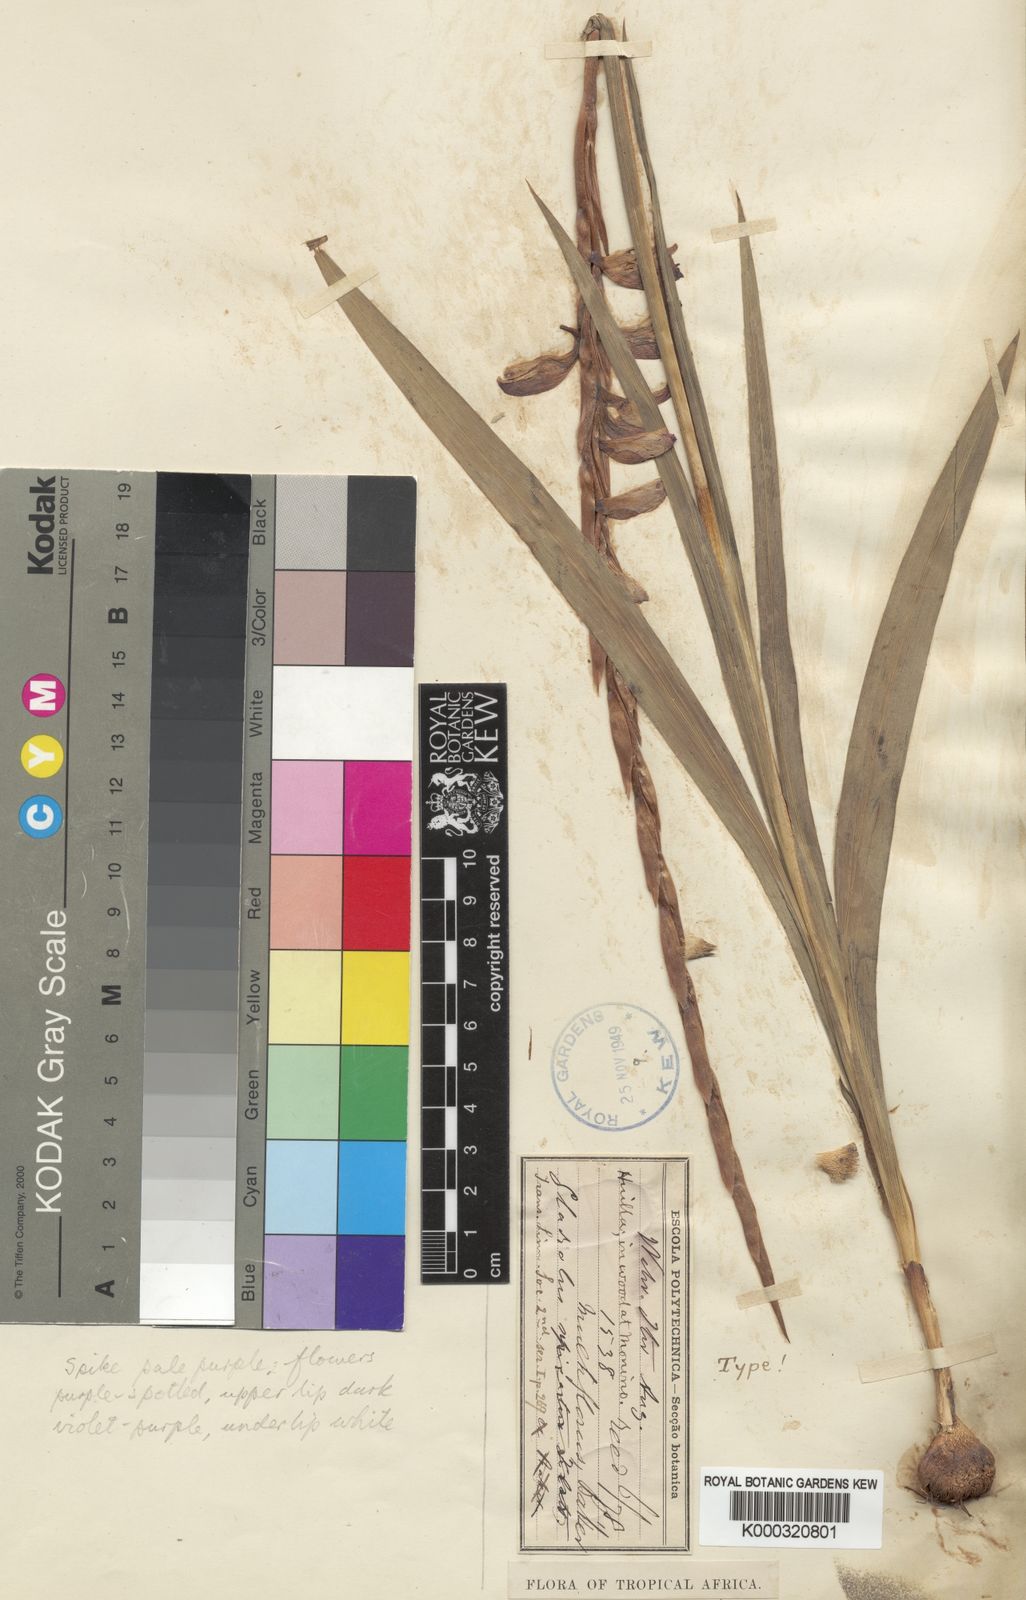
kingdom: Plantae
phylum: Tracheophyta
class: Liliopsida
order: Asparagales
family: Iridaceae
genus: Gladiolus
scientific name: Gladiolus gregarius
